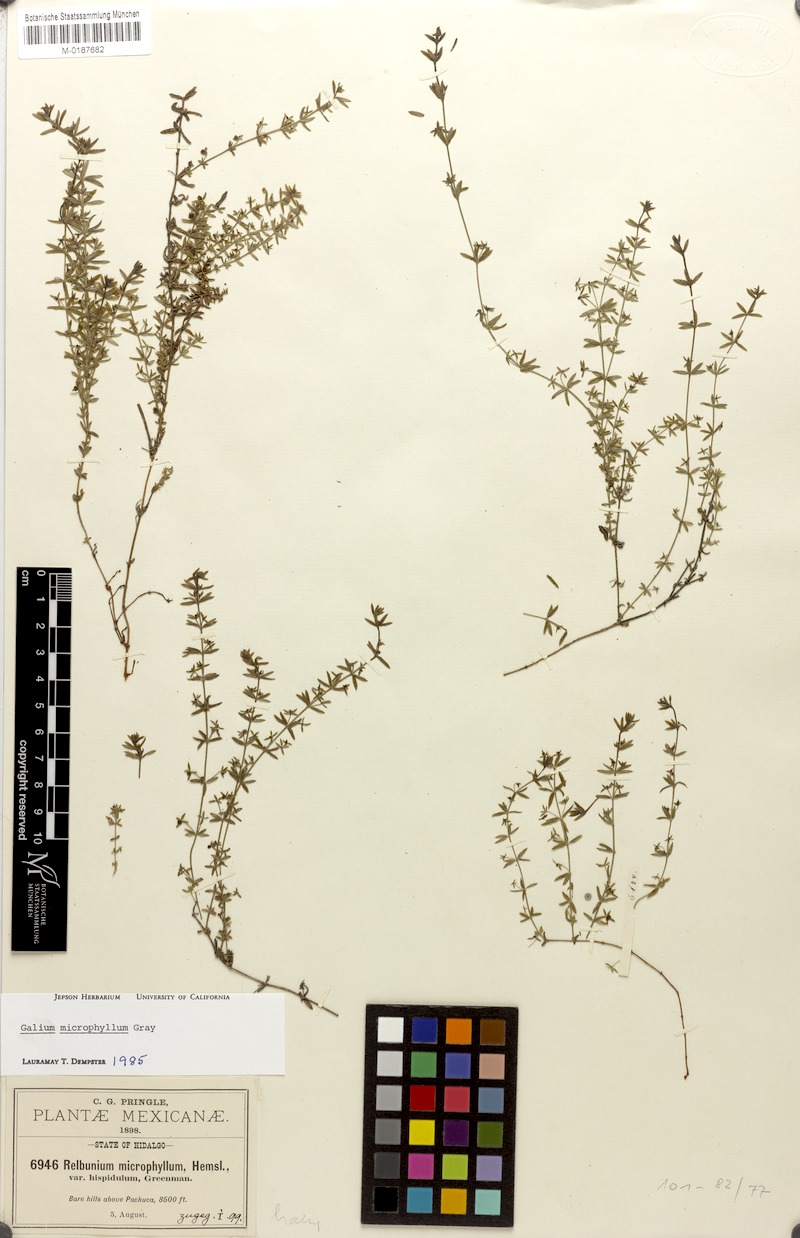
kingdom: Plantae
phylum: Tracheophyta
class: Magnoliopsida
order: Gentianales
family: Rubiaceae
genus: Galium
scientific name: Galium microphyllum
